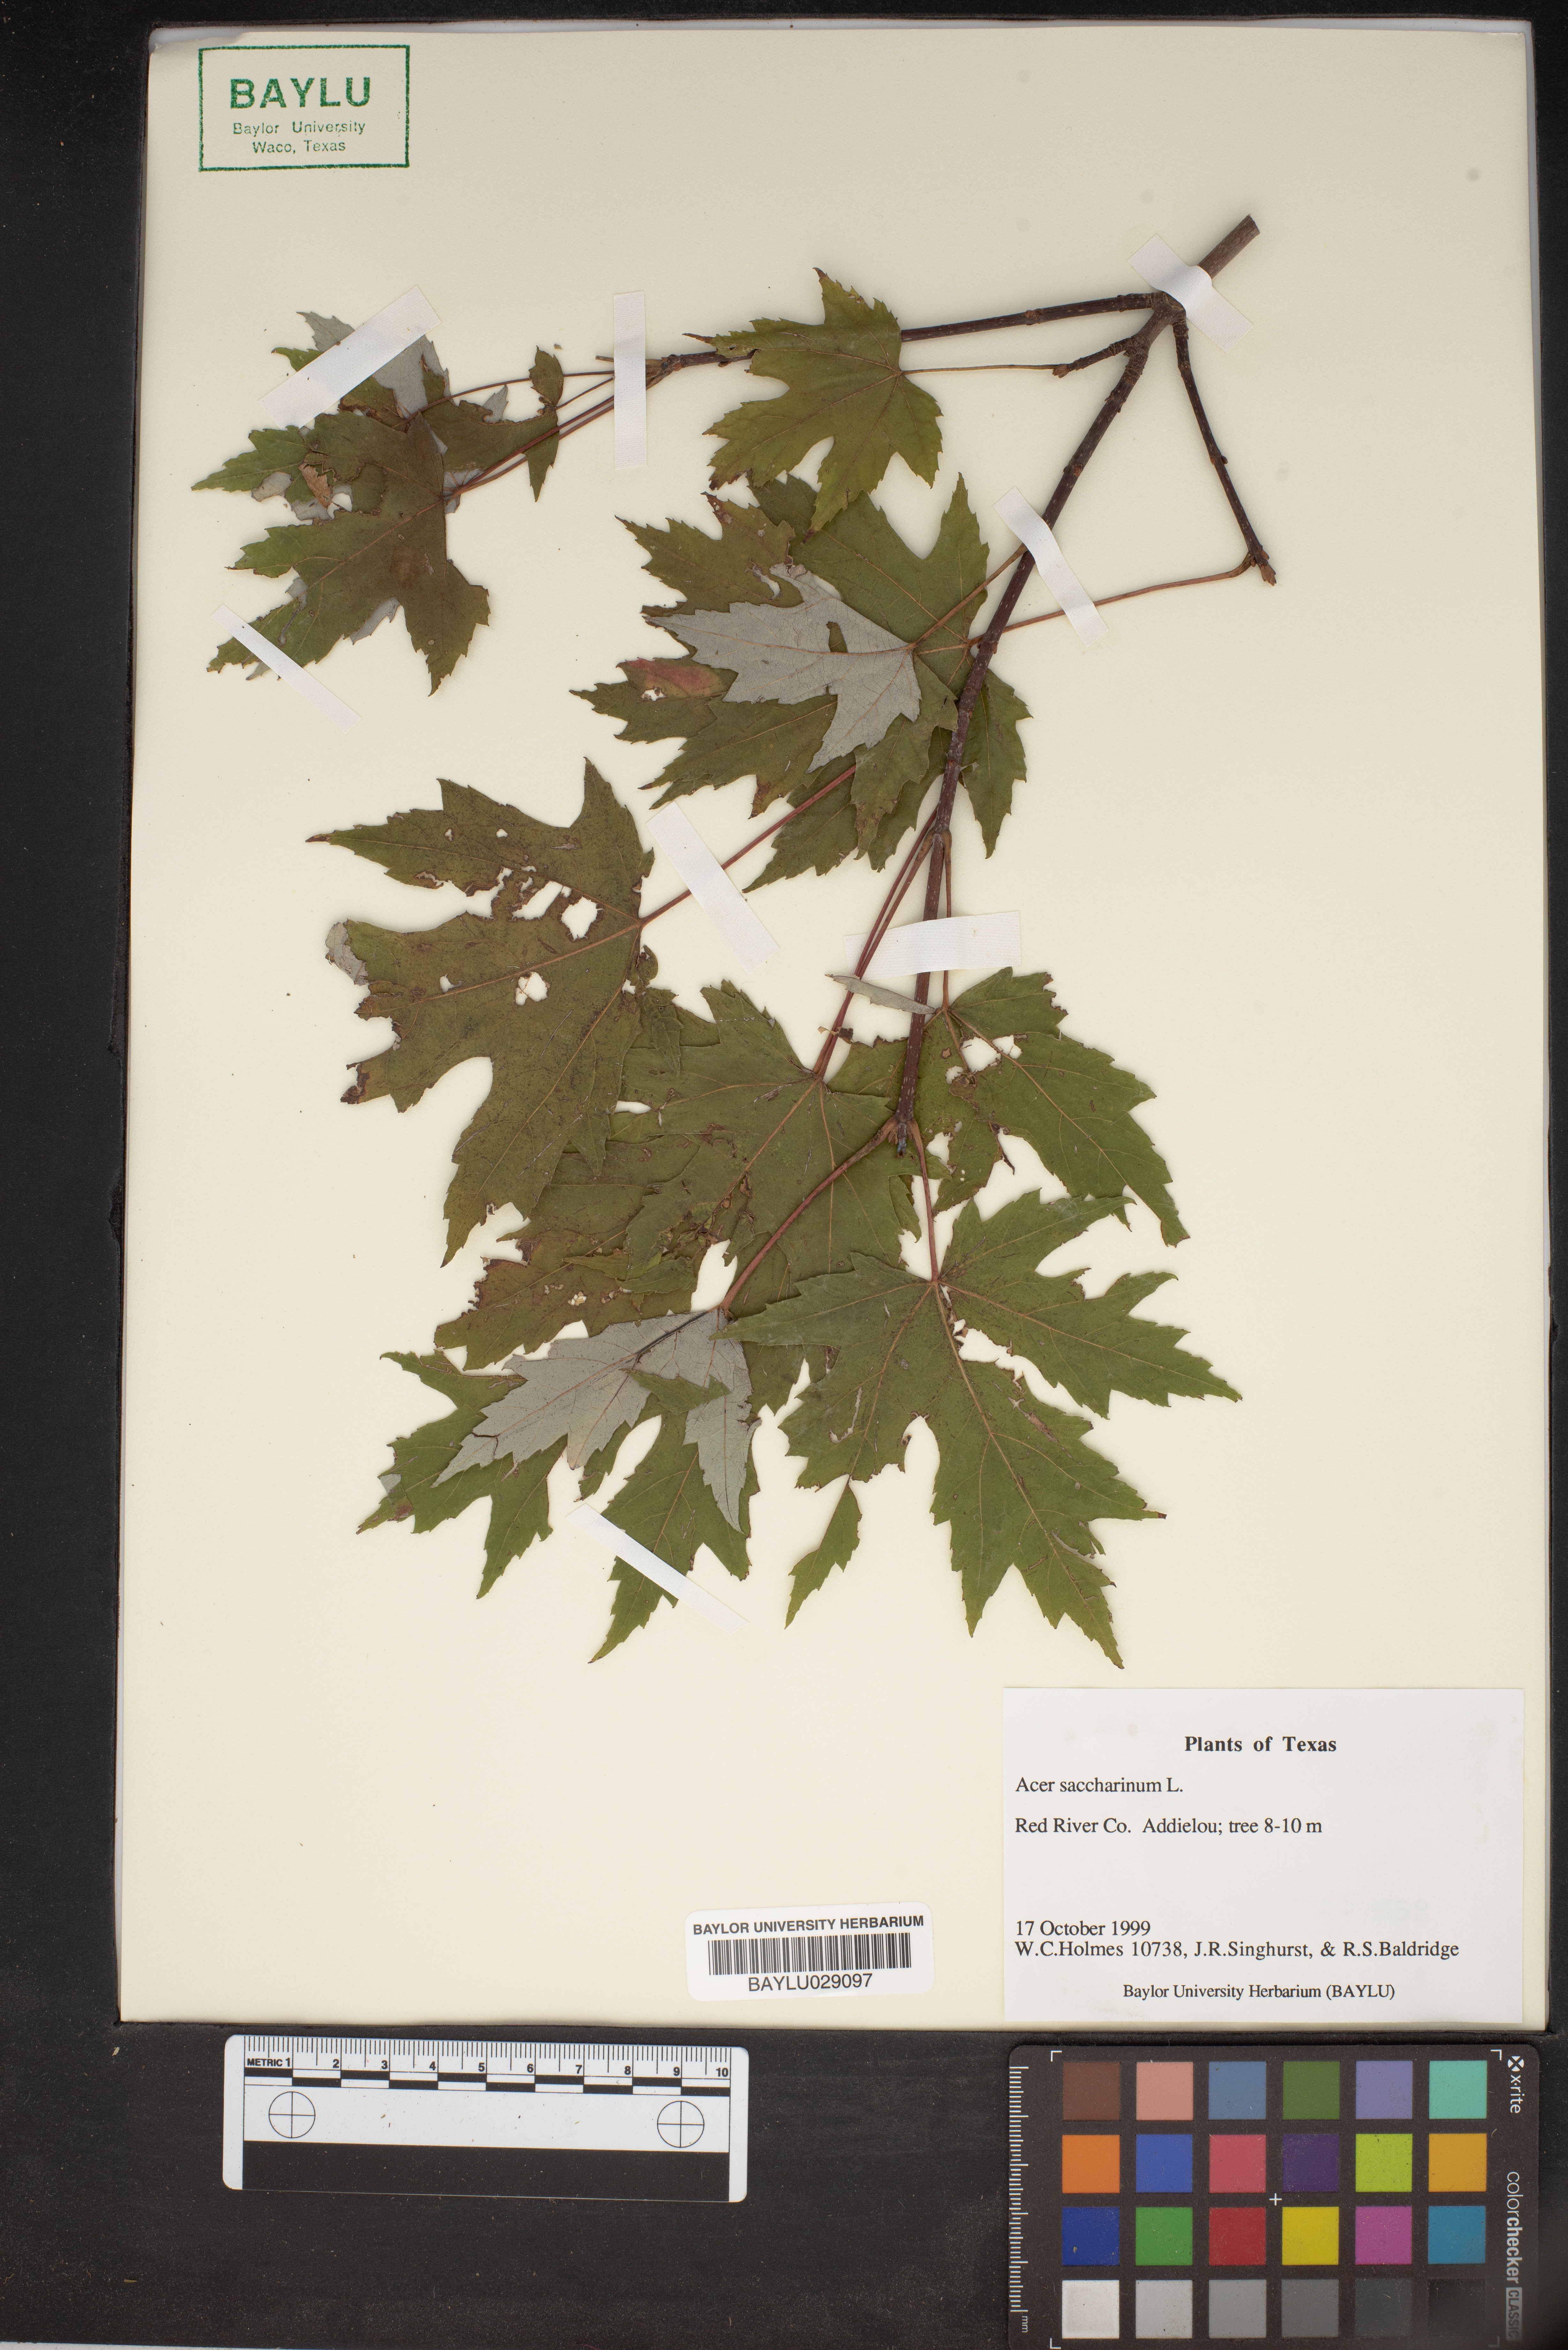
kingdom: Plantae
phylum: Tracheophyta
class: Magnoliopsida
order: Sapindales
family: Sapindaceae
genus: Acer
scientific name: Acer saccharinum
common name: Silver maple
